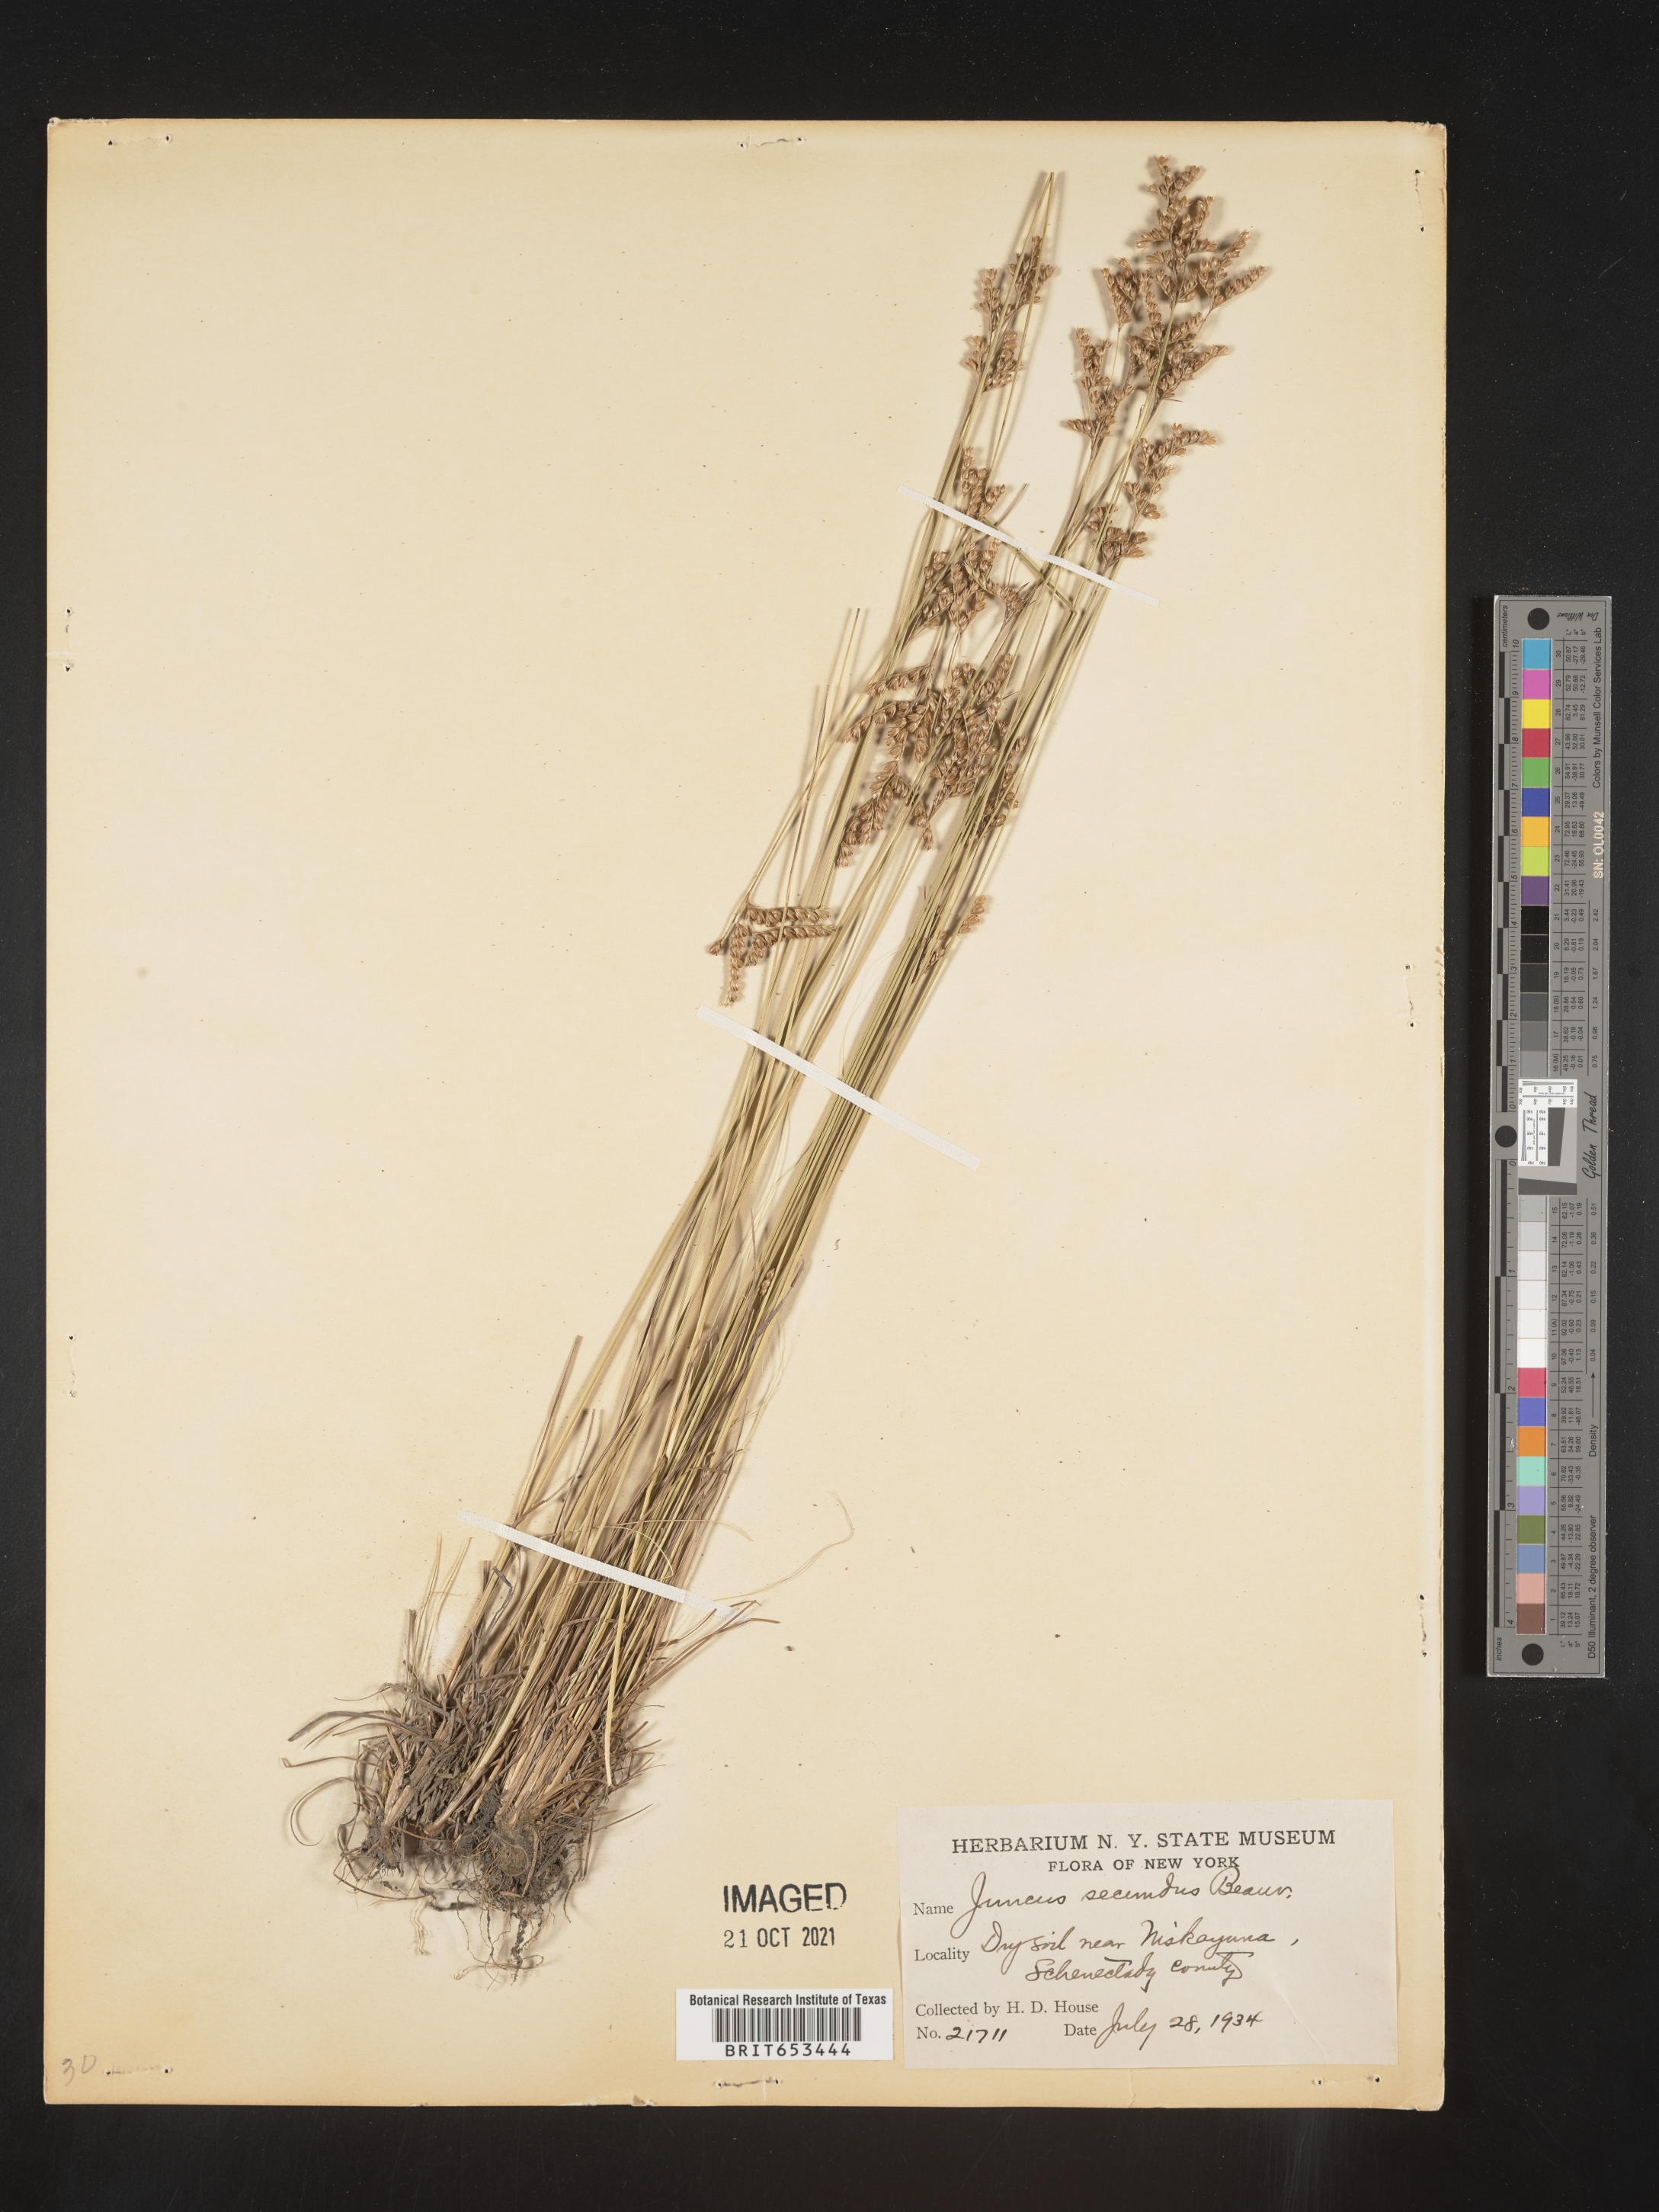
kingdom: Plantae
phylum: Tracheophyta
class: Liliopsida
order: Poales
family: Juncaceae
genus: Juncus
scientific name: Juncus secundus
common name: Lopsided rush
